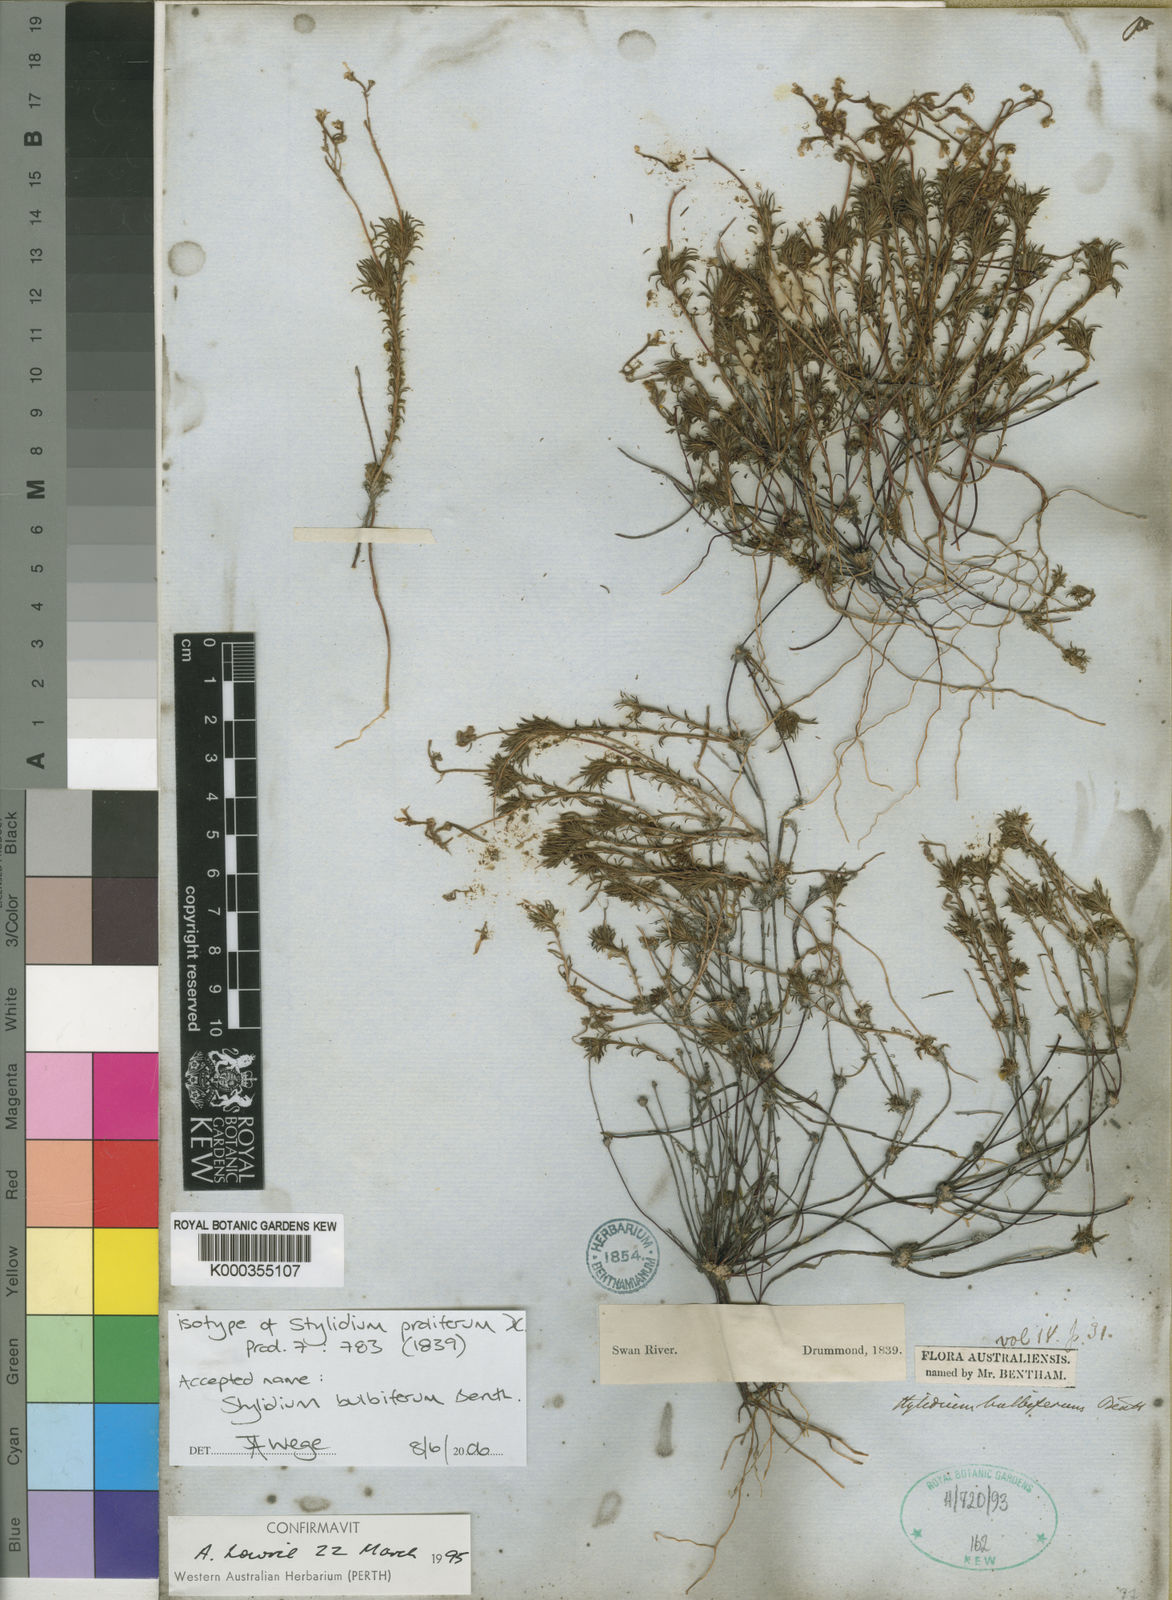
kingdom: Plantae
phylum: Tracheophyta
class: Magnoliopsida
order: Asterales
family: Stylidiaceae
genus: Stylidium
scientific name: Stylidium bulbiferum
